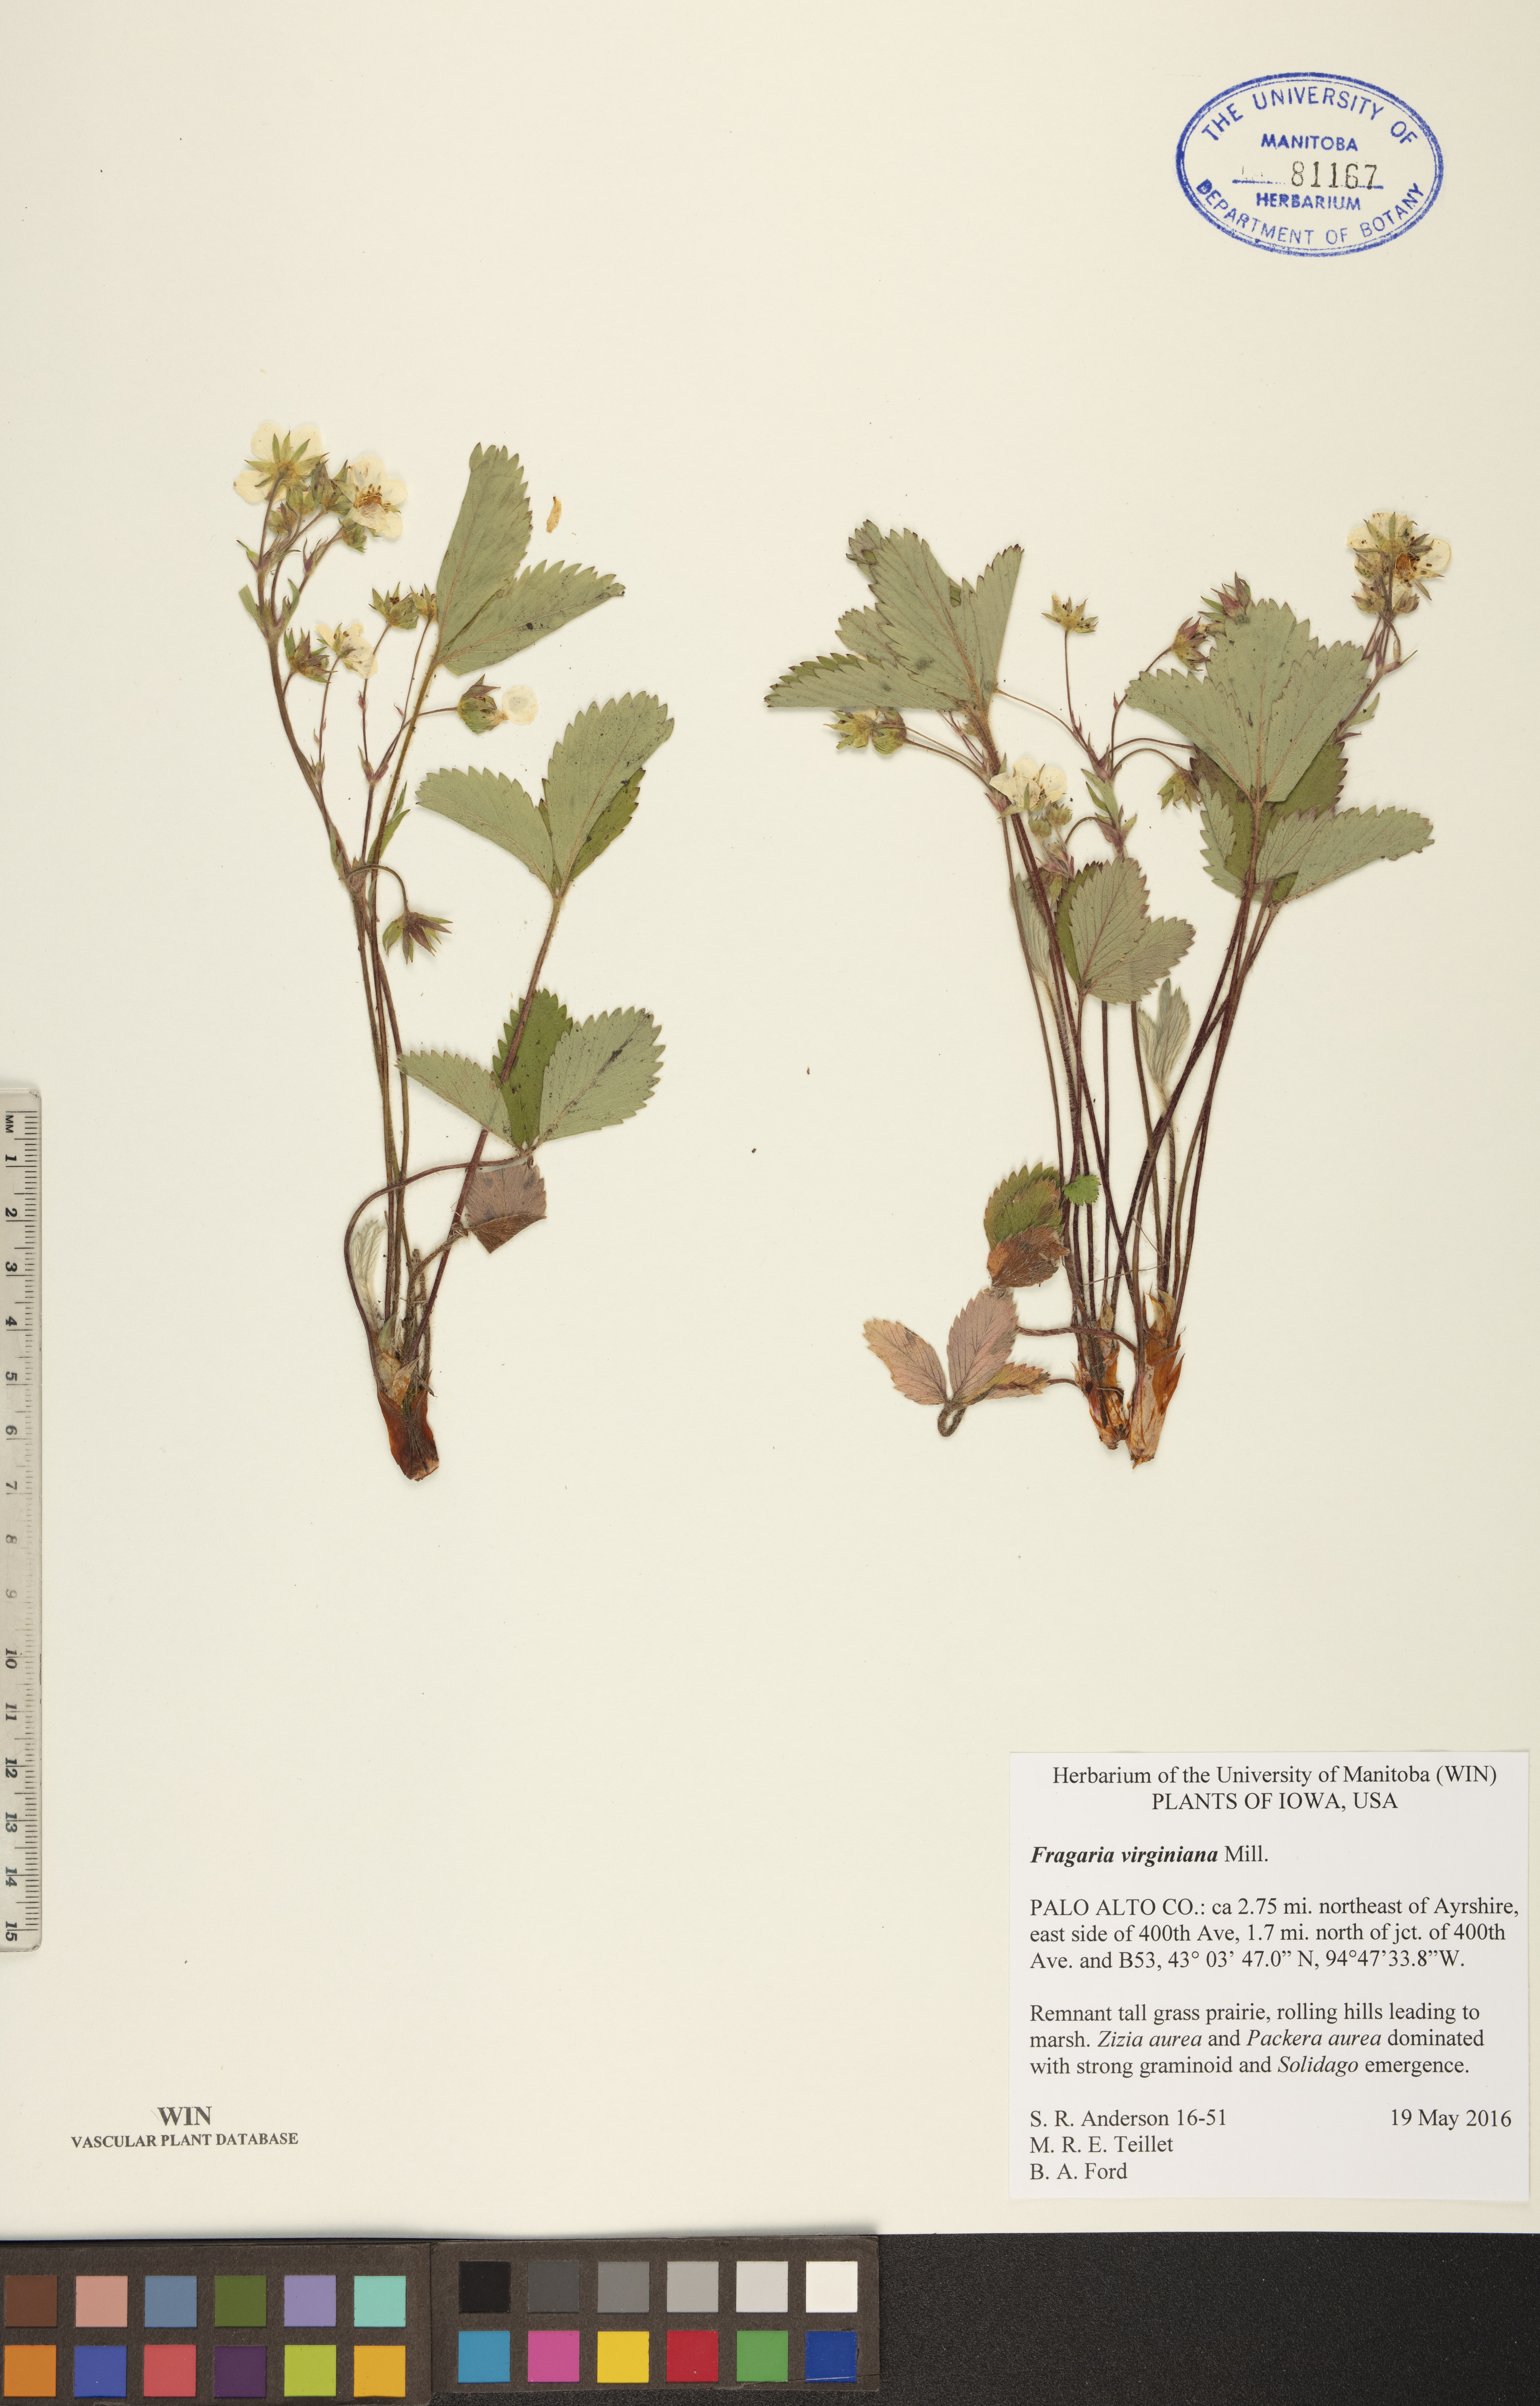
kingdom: Plantae
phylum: Tracheophyta
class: Magnoliopsida
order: Rosales
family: Rosaceae
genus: Fragaria
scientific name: Fragaria virginiana
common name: Thickleaved wild strawberry
